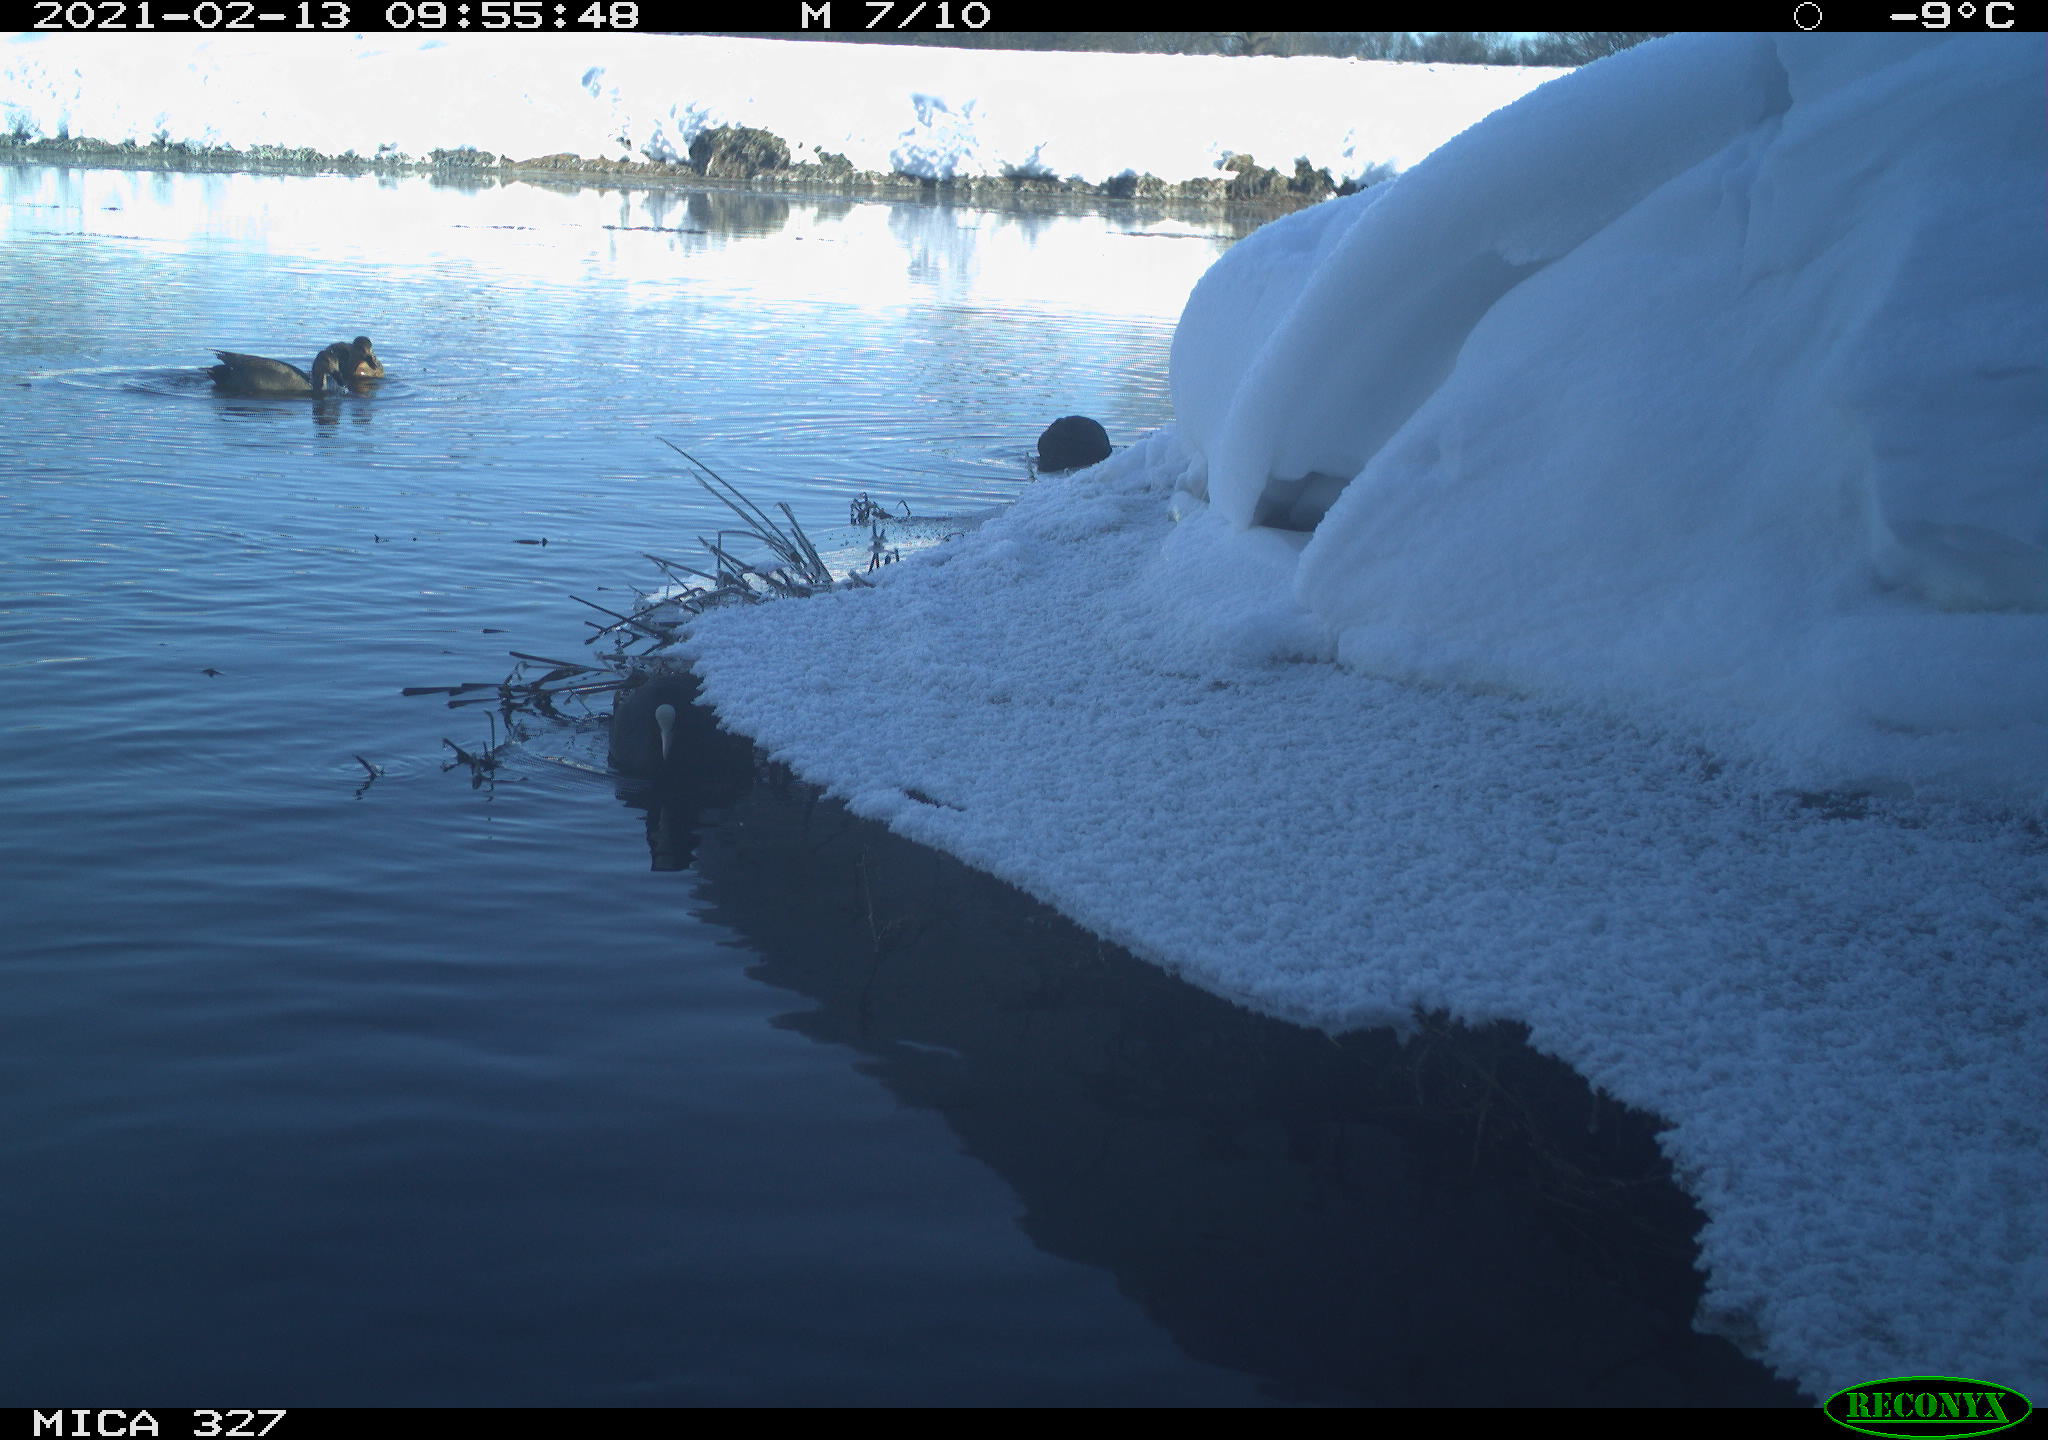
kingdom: Animalia
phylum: Chordata
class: Aves
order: Anseriformes
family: Anatidae
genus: Anas
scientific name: Anas
